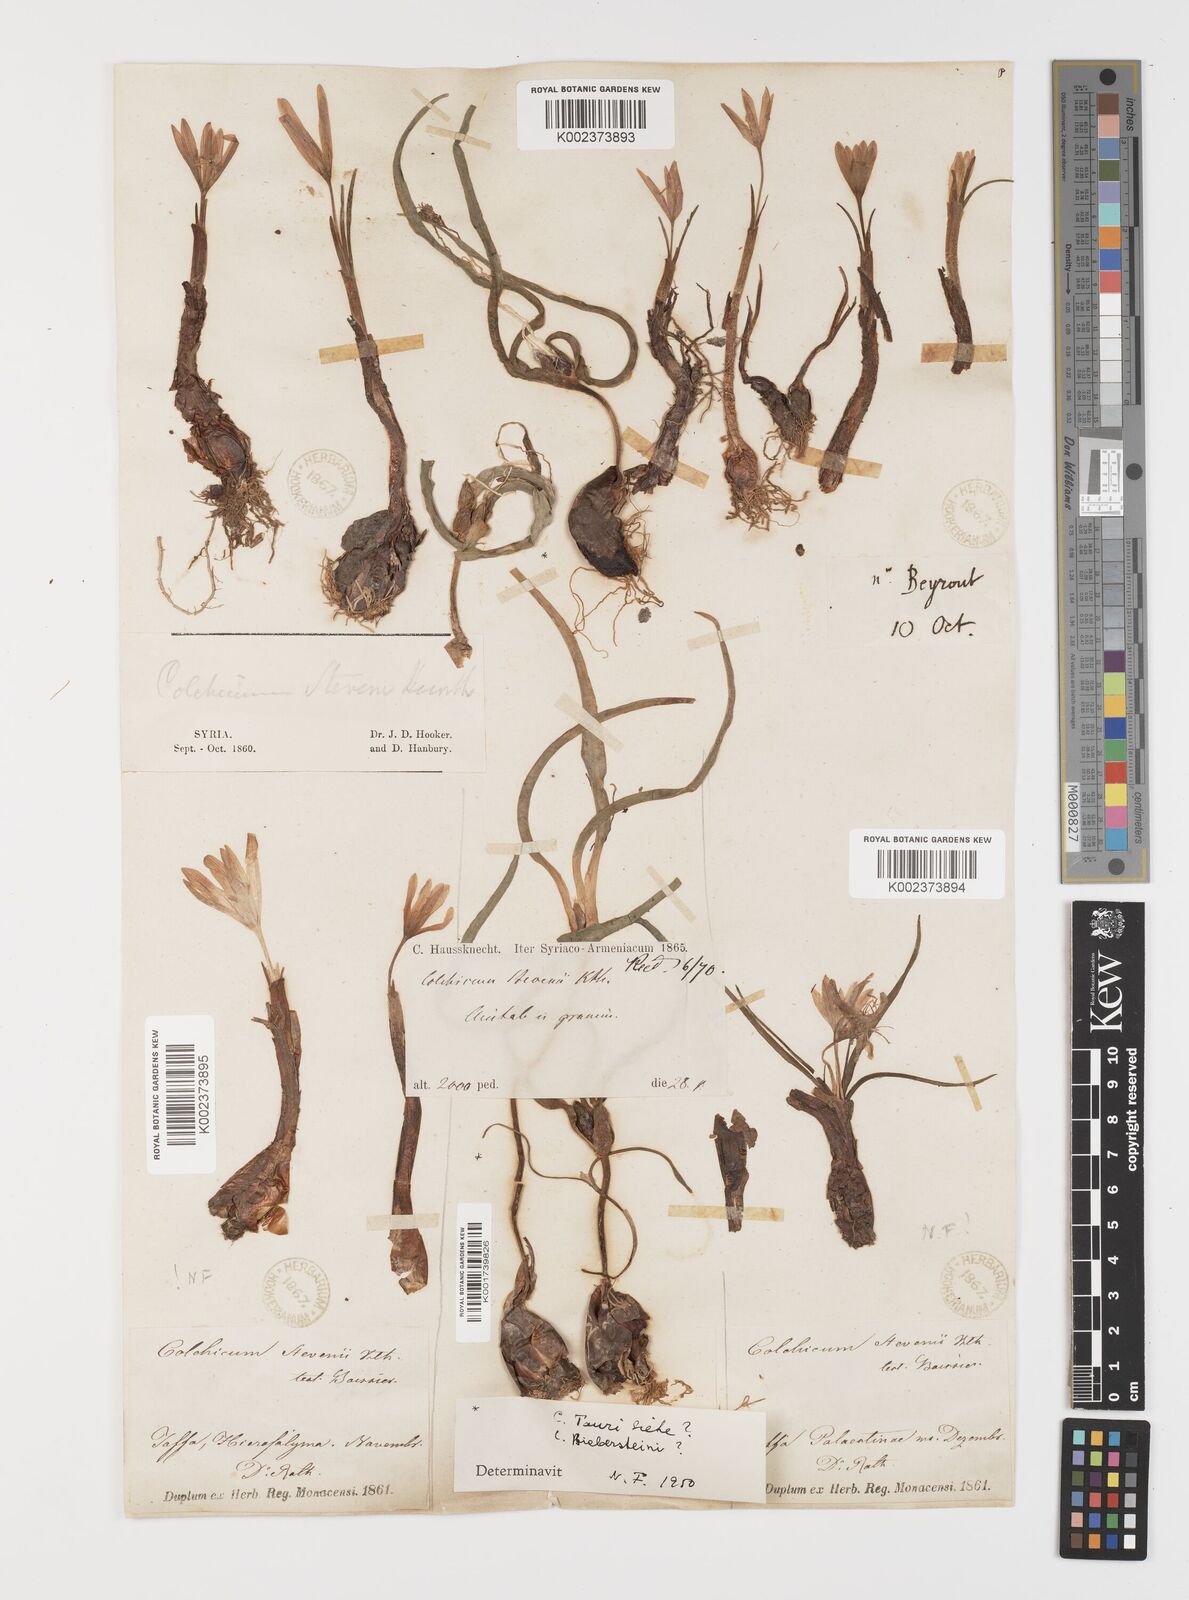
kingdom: Plantae
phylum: Tracheophyta
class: Liliopsida
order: Liliales
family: Colchicaceae
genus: Colchicum
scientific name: Colchicum stevenii
